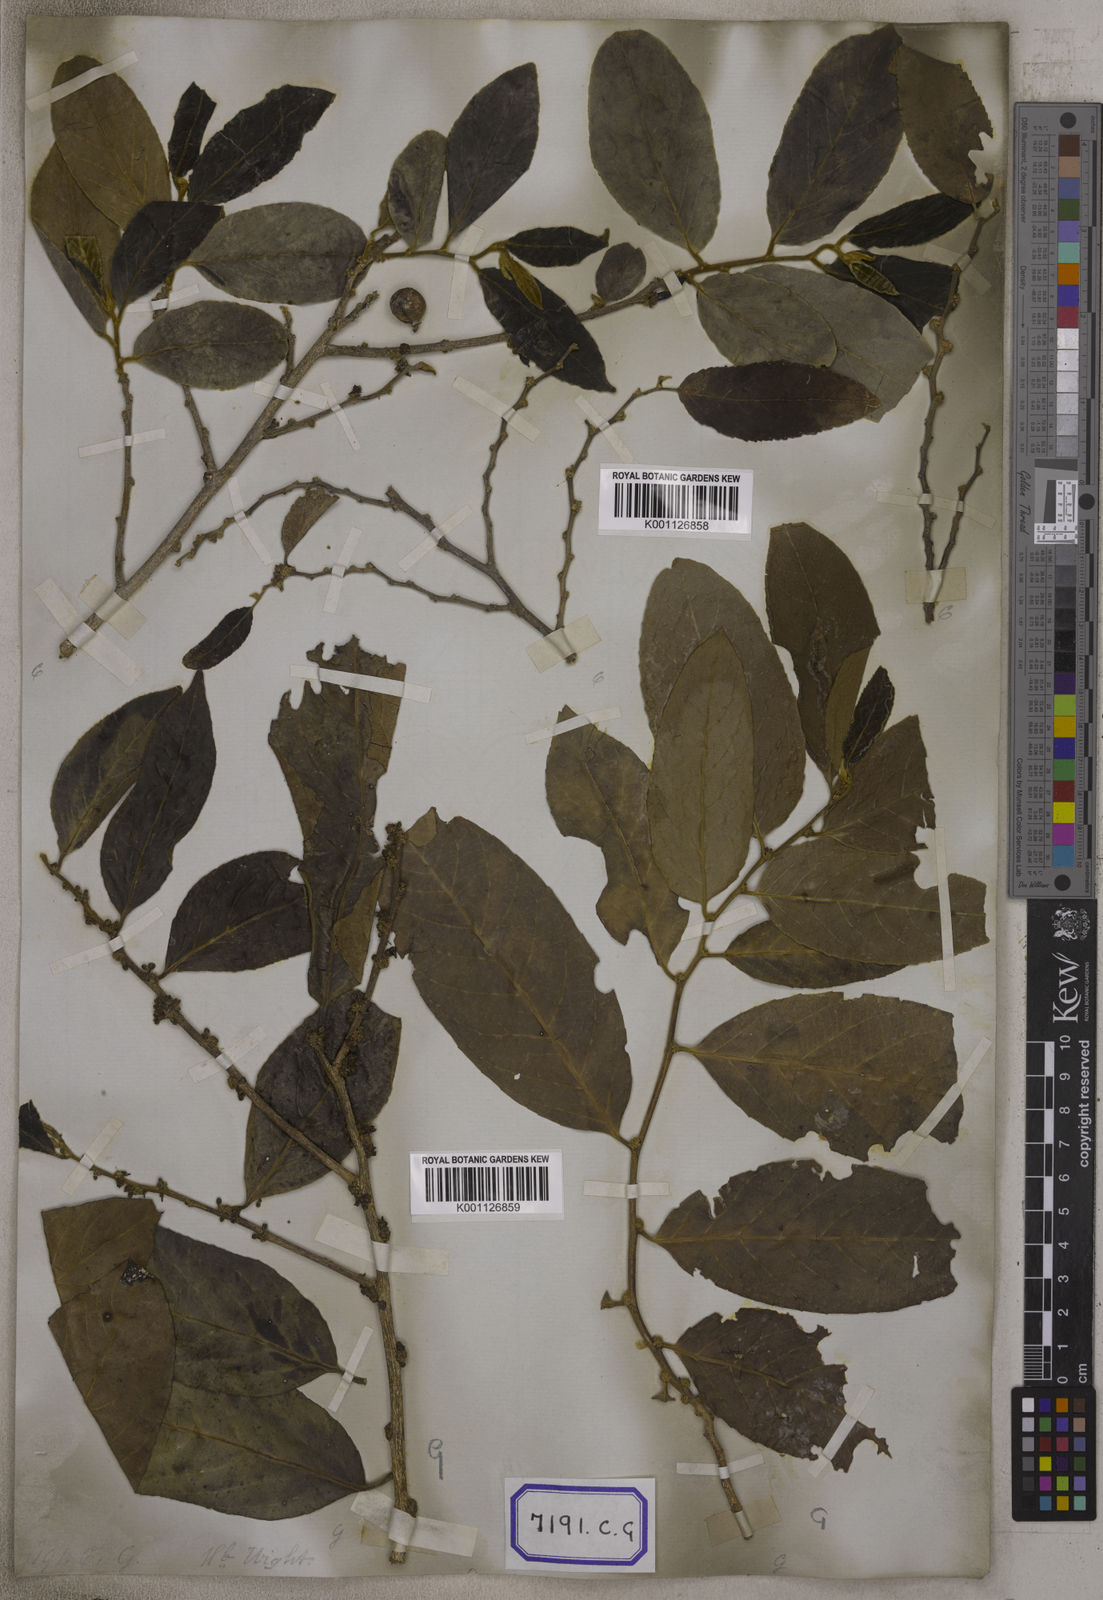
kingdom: Plantae
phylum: Tracheophyta
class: Magnoliopsida
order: Malpighiales
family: Salicaceae
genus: Casearia
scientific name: Casearia tomentosa
